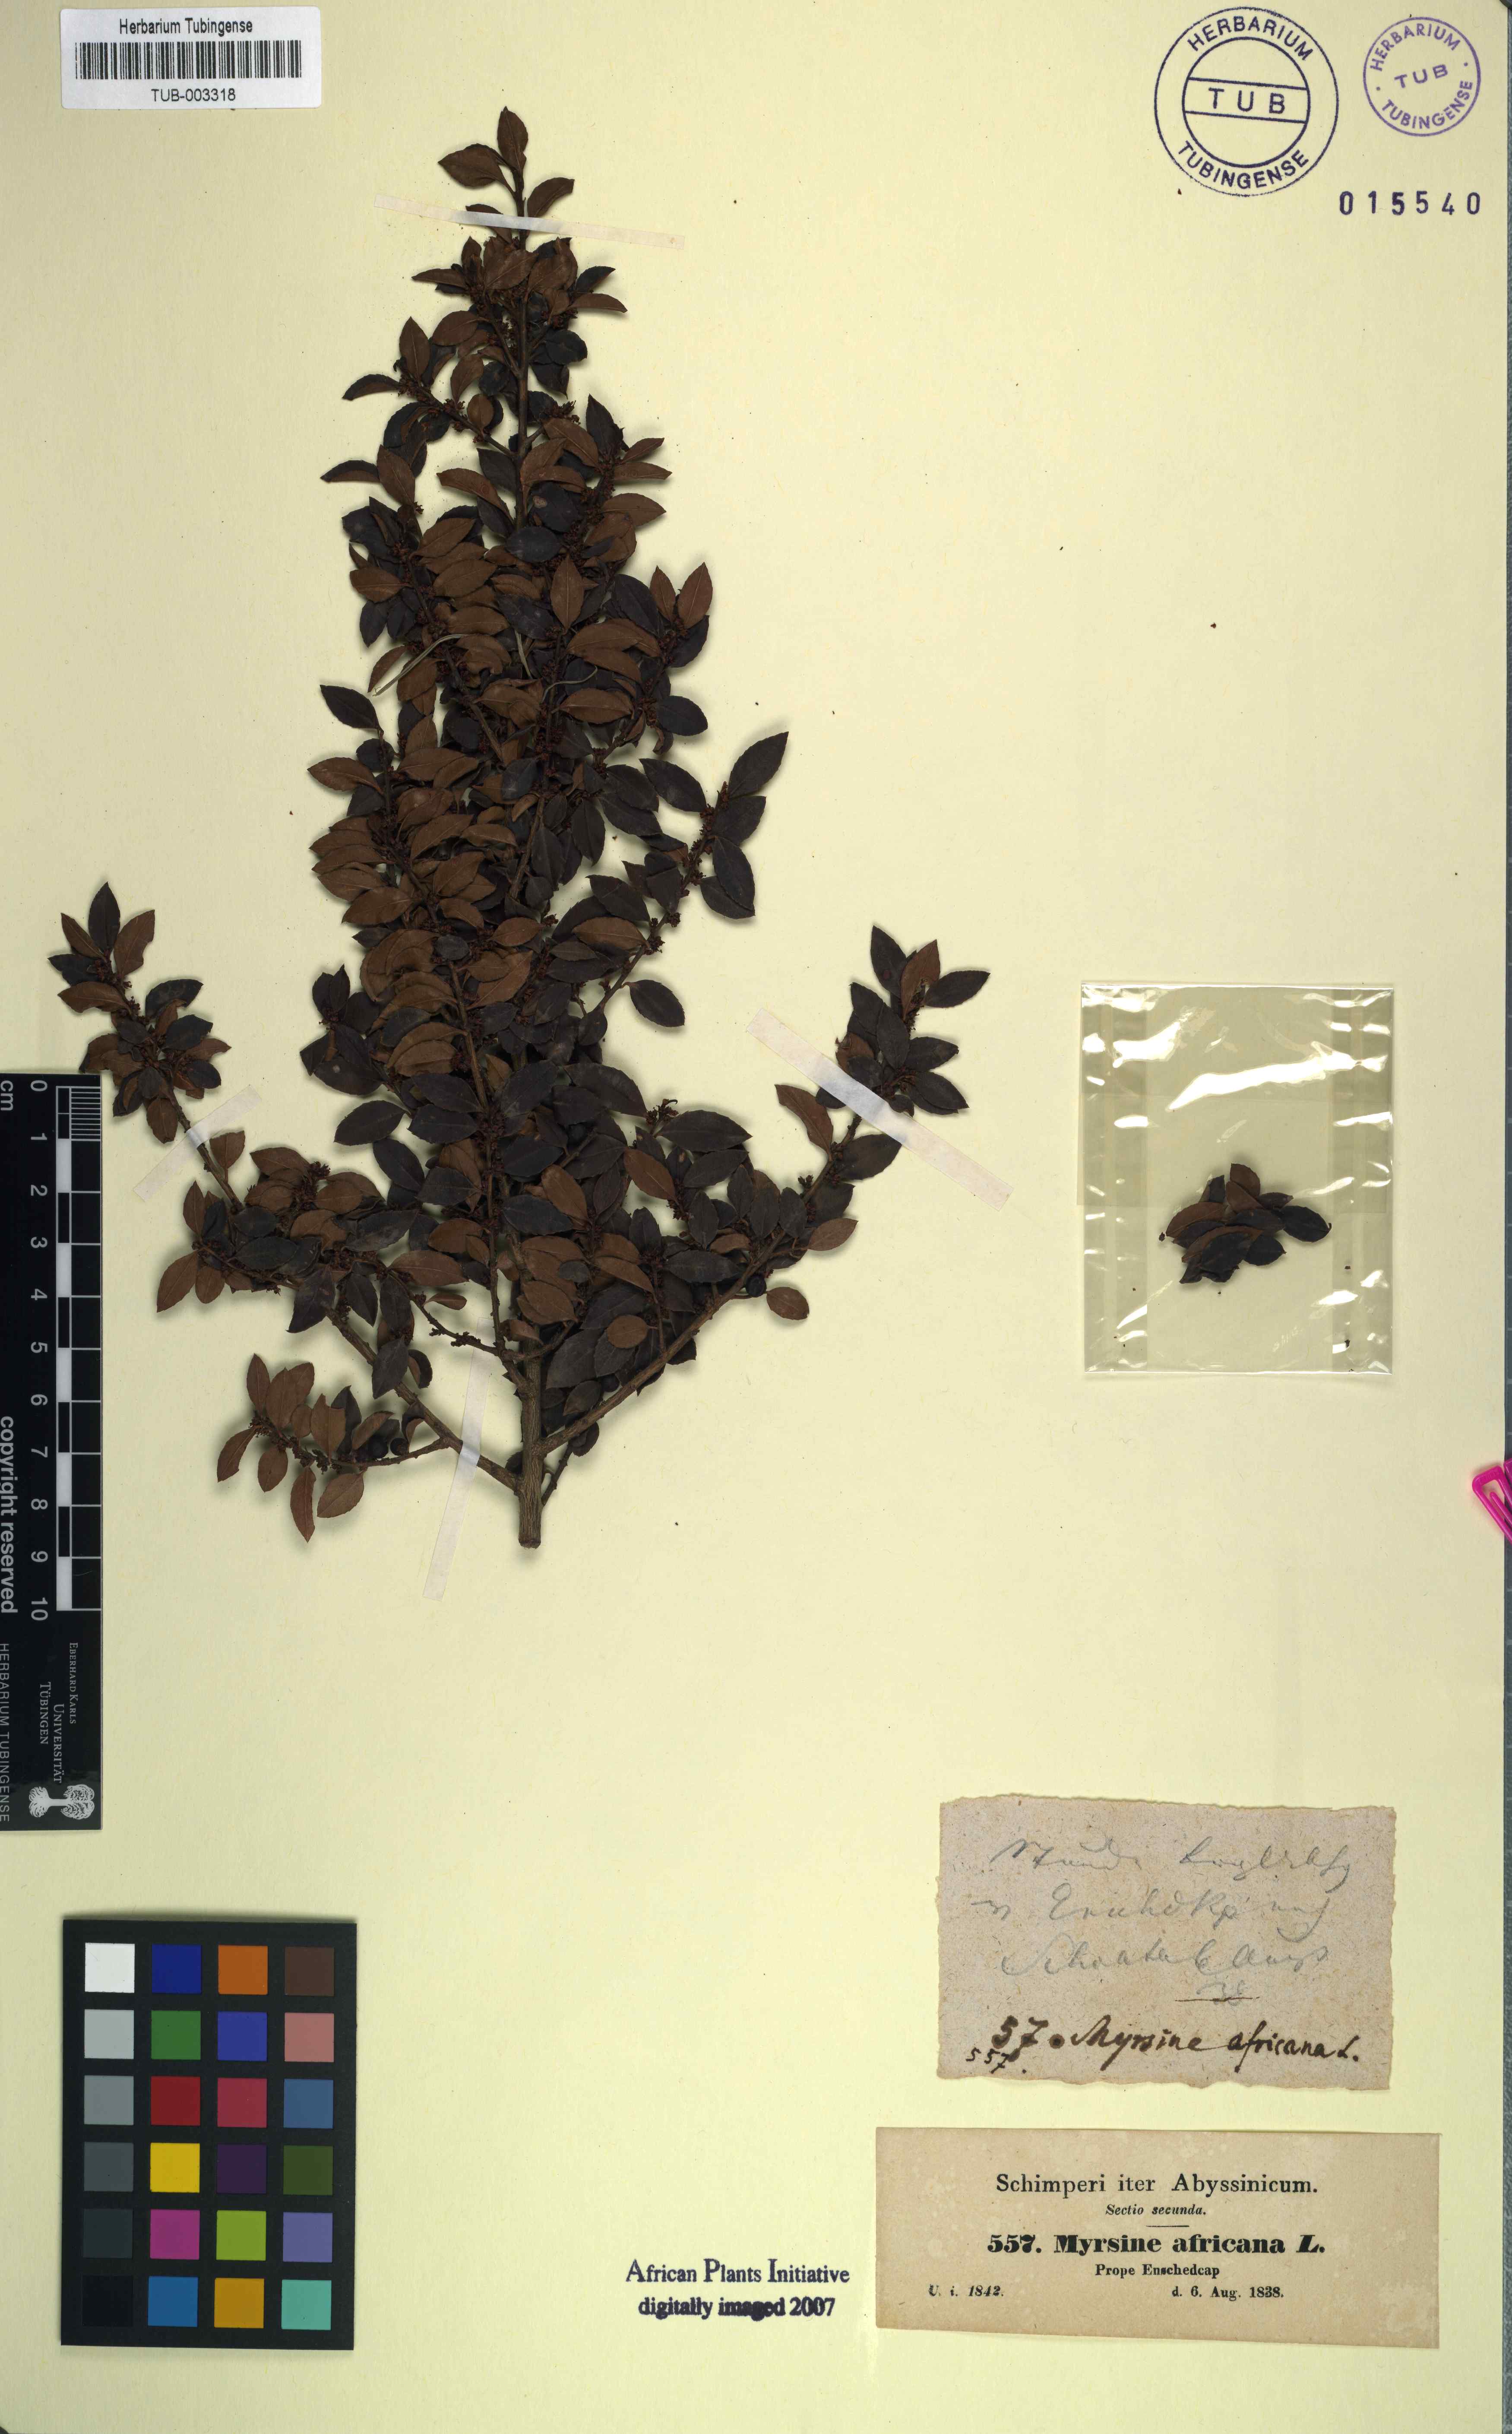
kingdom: Plantae
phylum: Tracheophyta
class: Magnoliopsida
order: Ericales
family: Primulaceae
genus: Myrsine
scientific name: Myrsine africana
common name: African-boxwood
